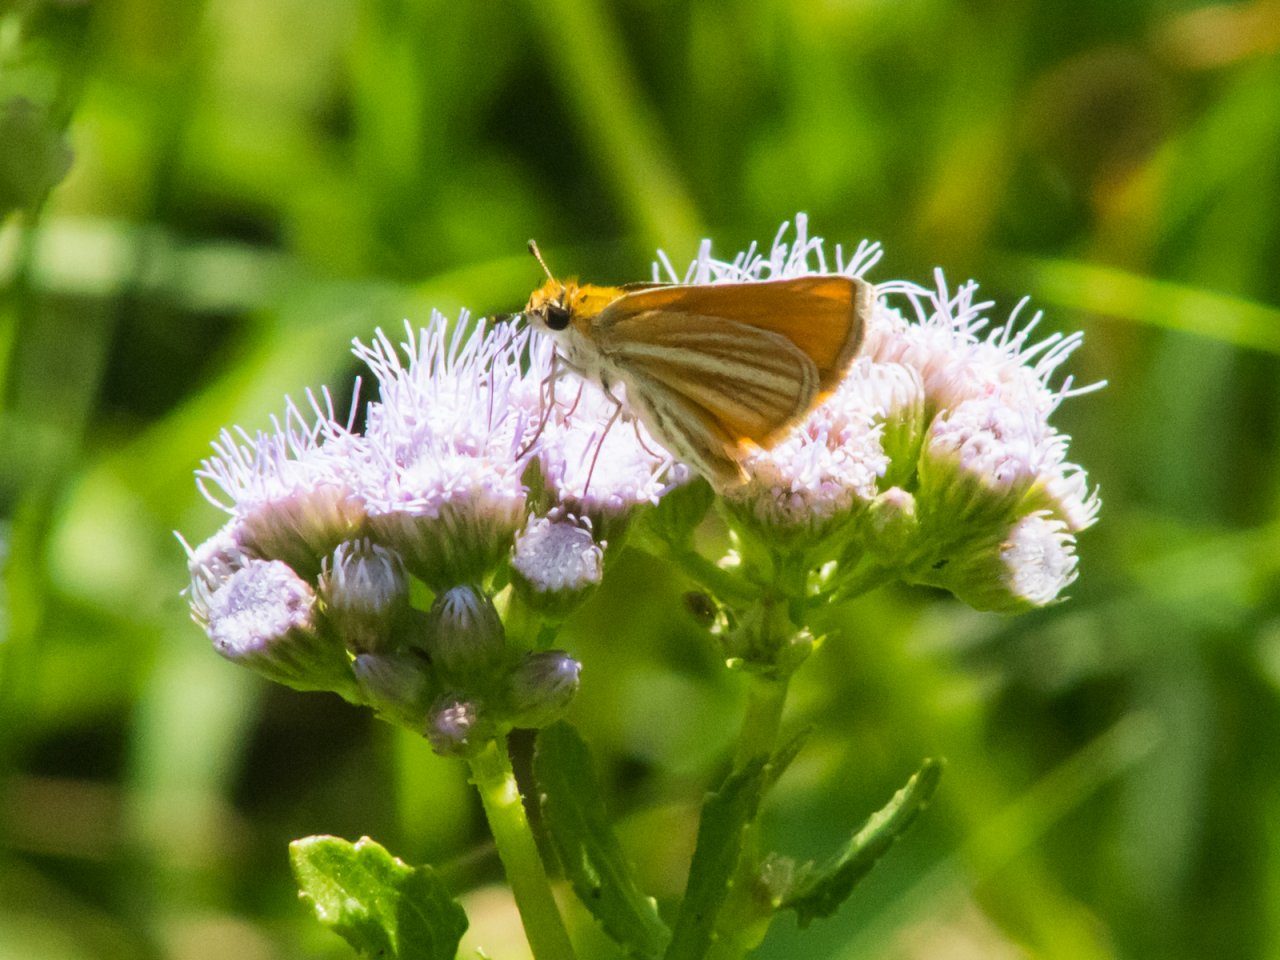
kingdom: Animalia
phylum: Arthropoda
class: Insecta
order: Lepidoptera
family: Hesperiidae
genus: Copaeodes
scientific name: Copaeodes minima
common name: Southern Skipperling
